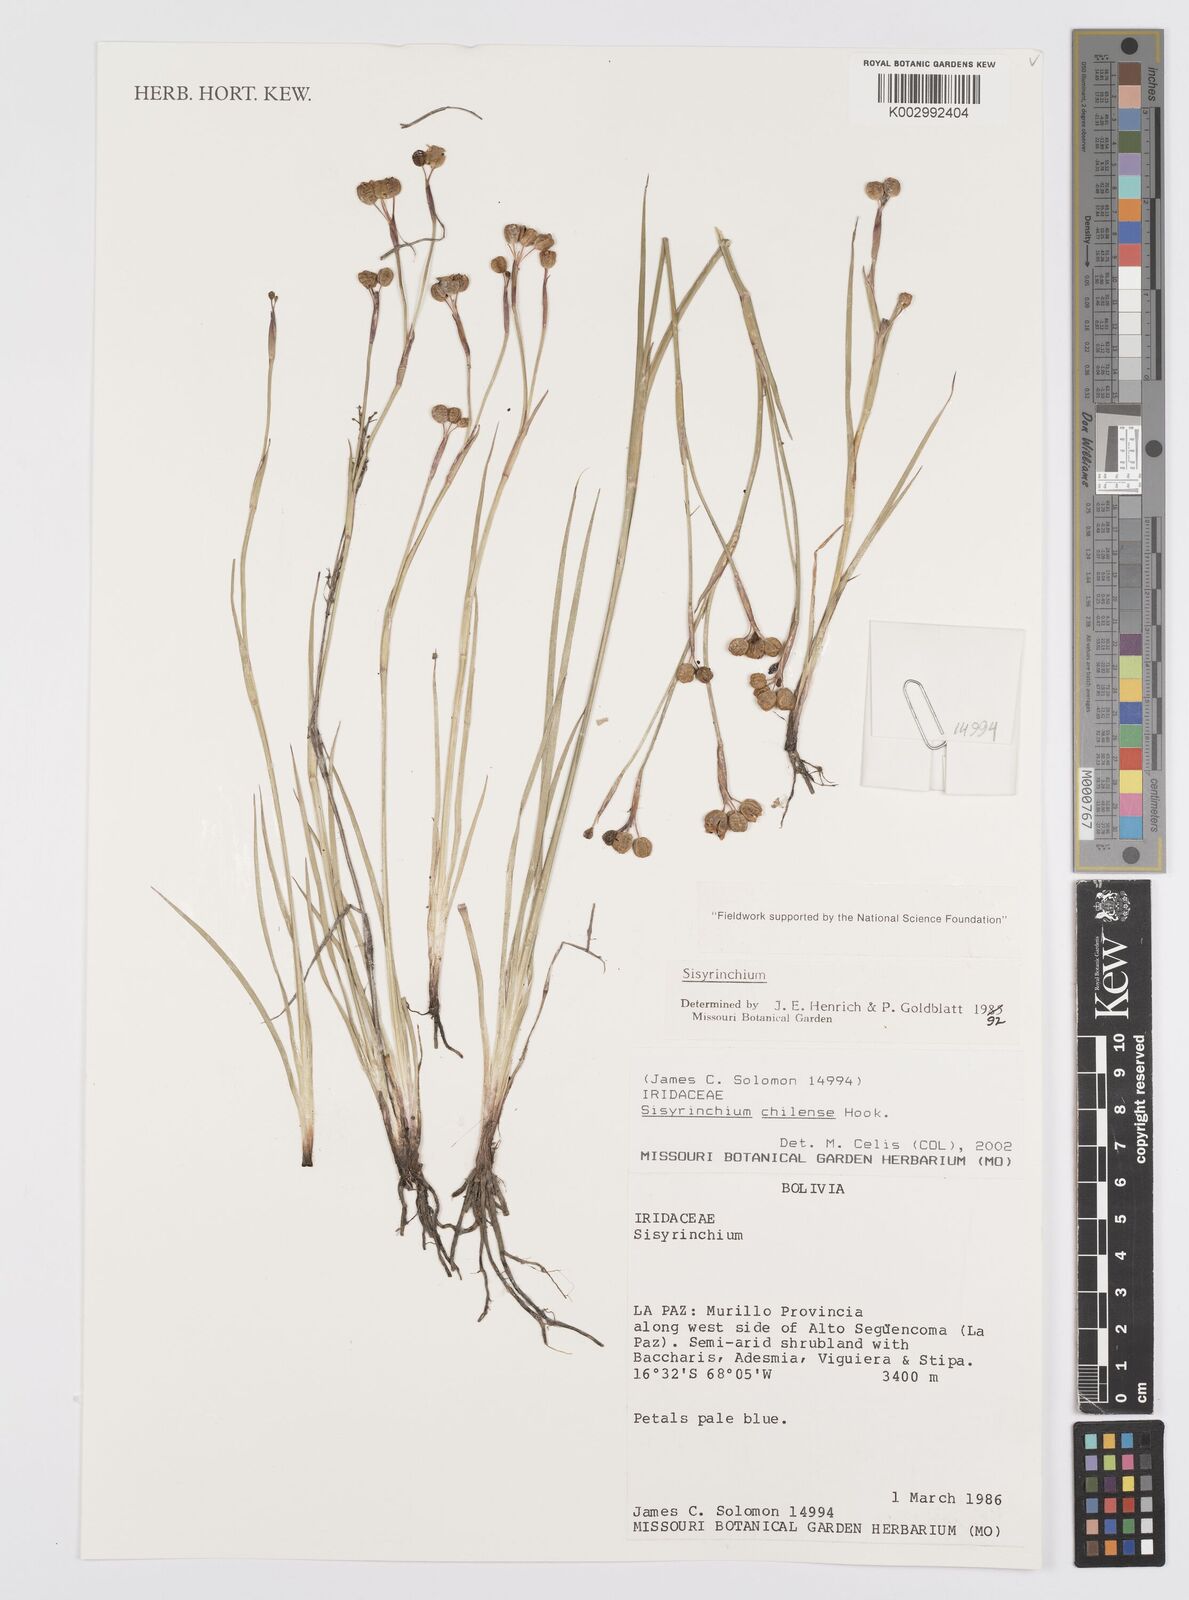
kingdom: Plantae
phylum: Tracheophyta
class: Liliopsida
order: Asparagales
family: Iridaceae
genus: Sisyrinchium
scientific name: Sisyrinchium chilense
